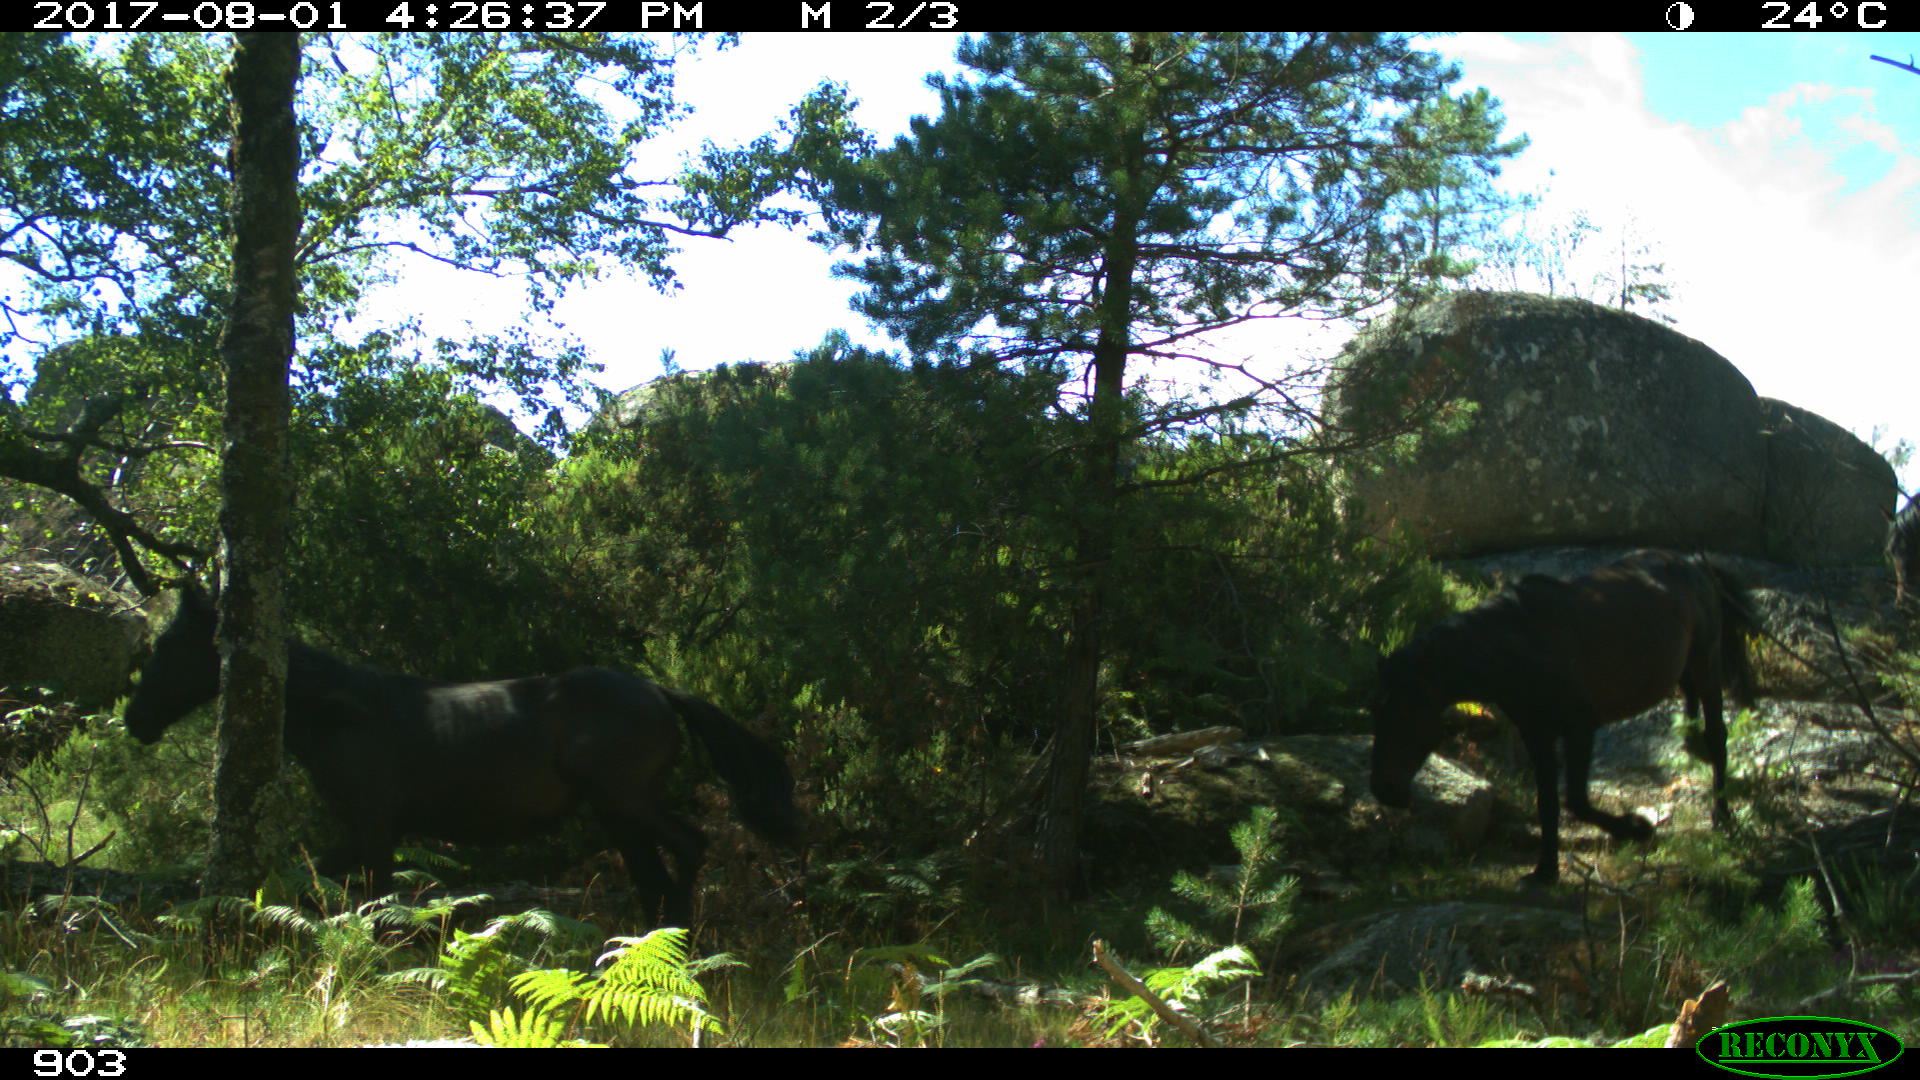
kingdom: Animalia
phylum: Chordata
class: Mammalia
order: Perissodactyla
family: Equidae
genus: Equus
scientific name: Equus caballus
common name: Horse
